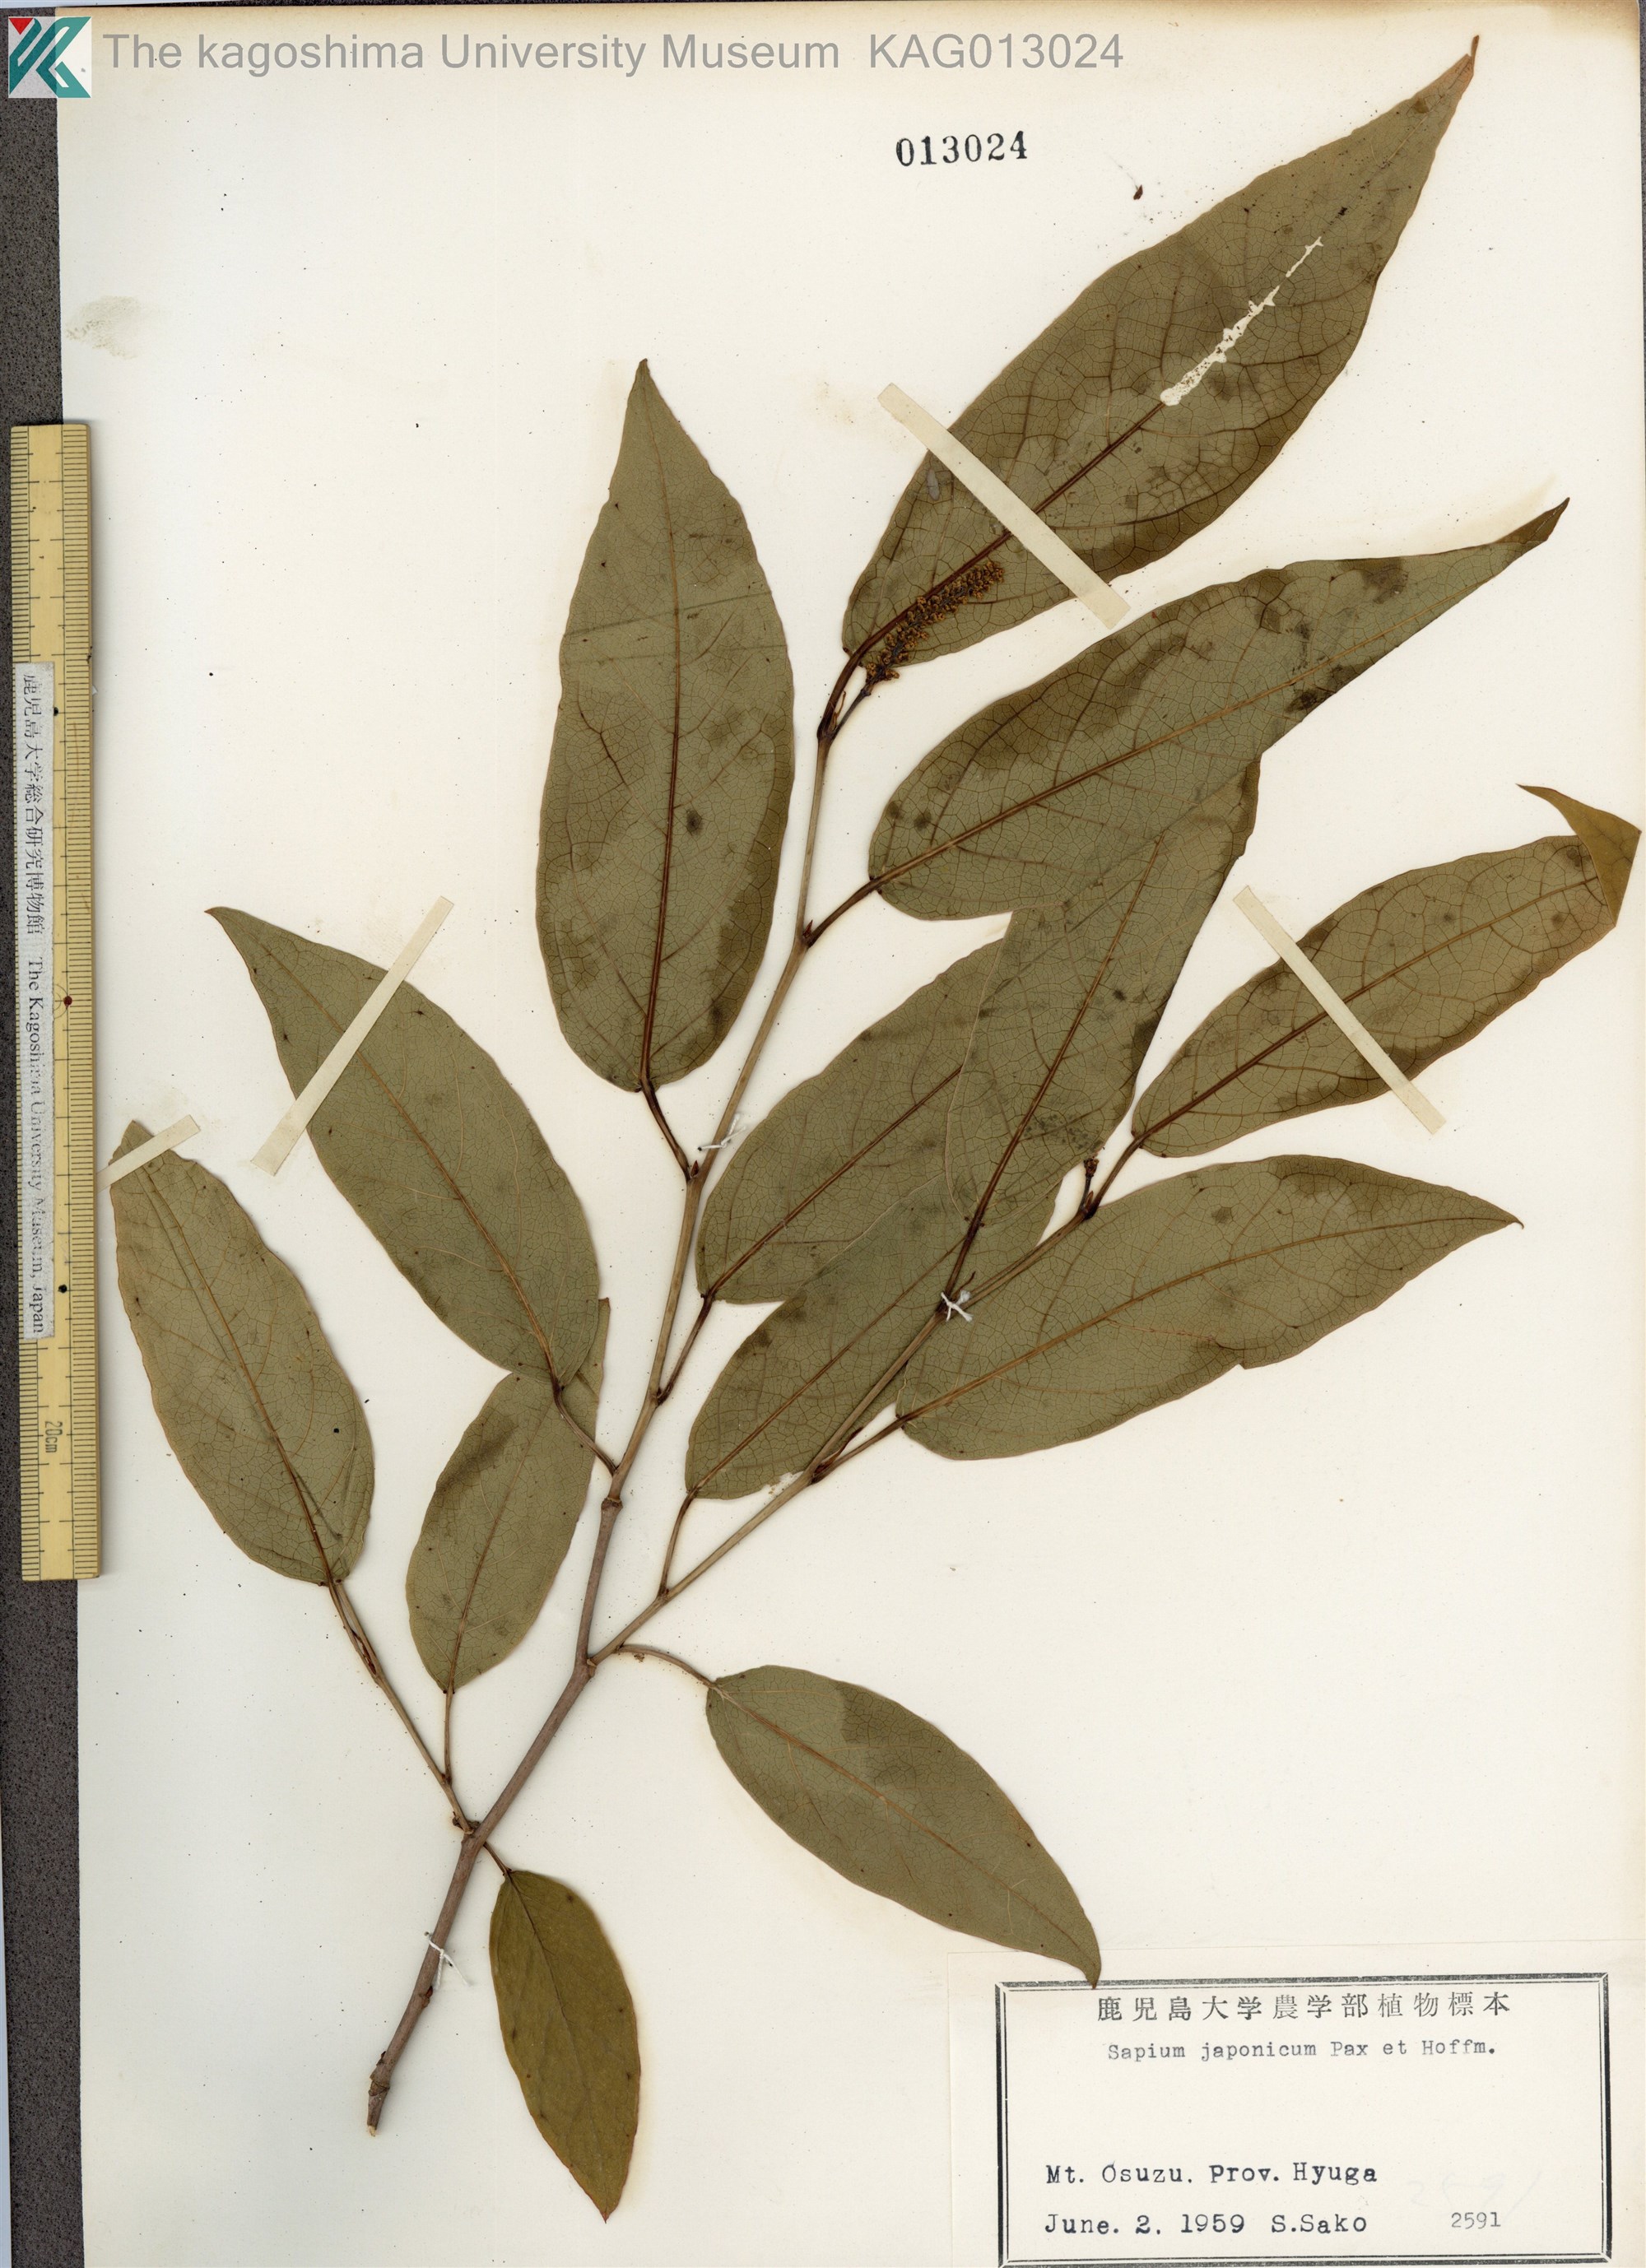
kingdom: Plantae
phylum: Tracheophyta
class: Magnoliopsida
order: Malpighiales
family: Euphorbiaceae
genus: Neoshirakia
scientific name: Neoshirakia japonica
